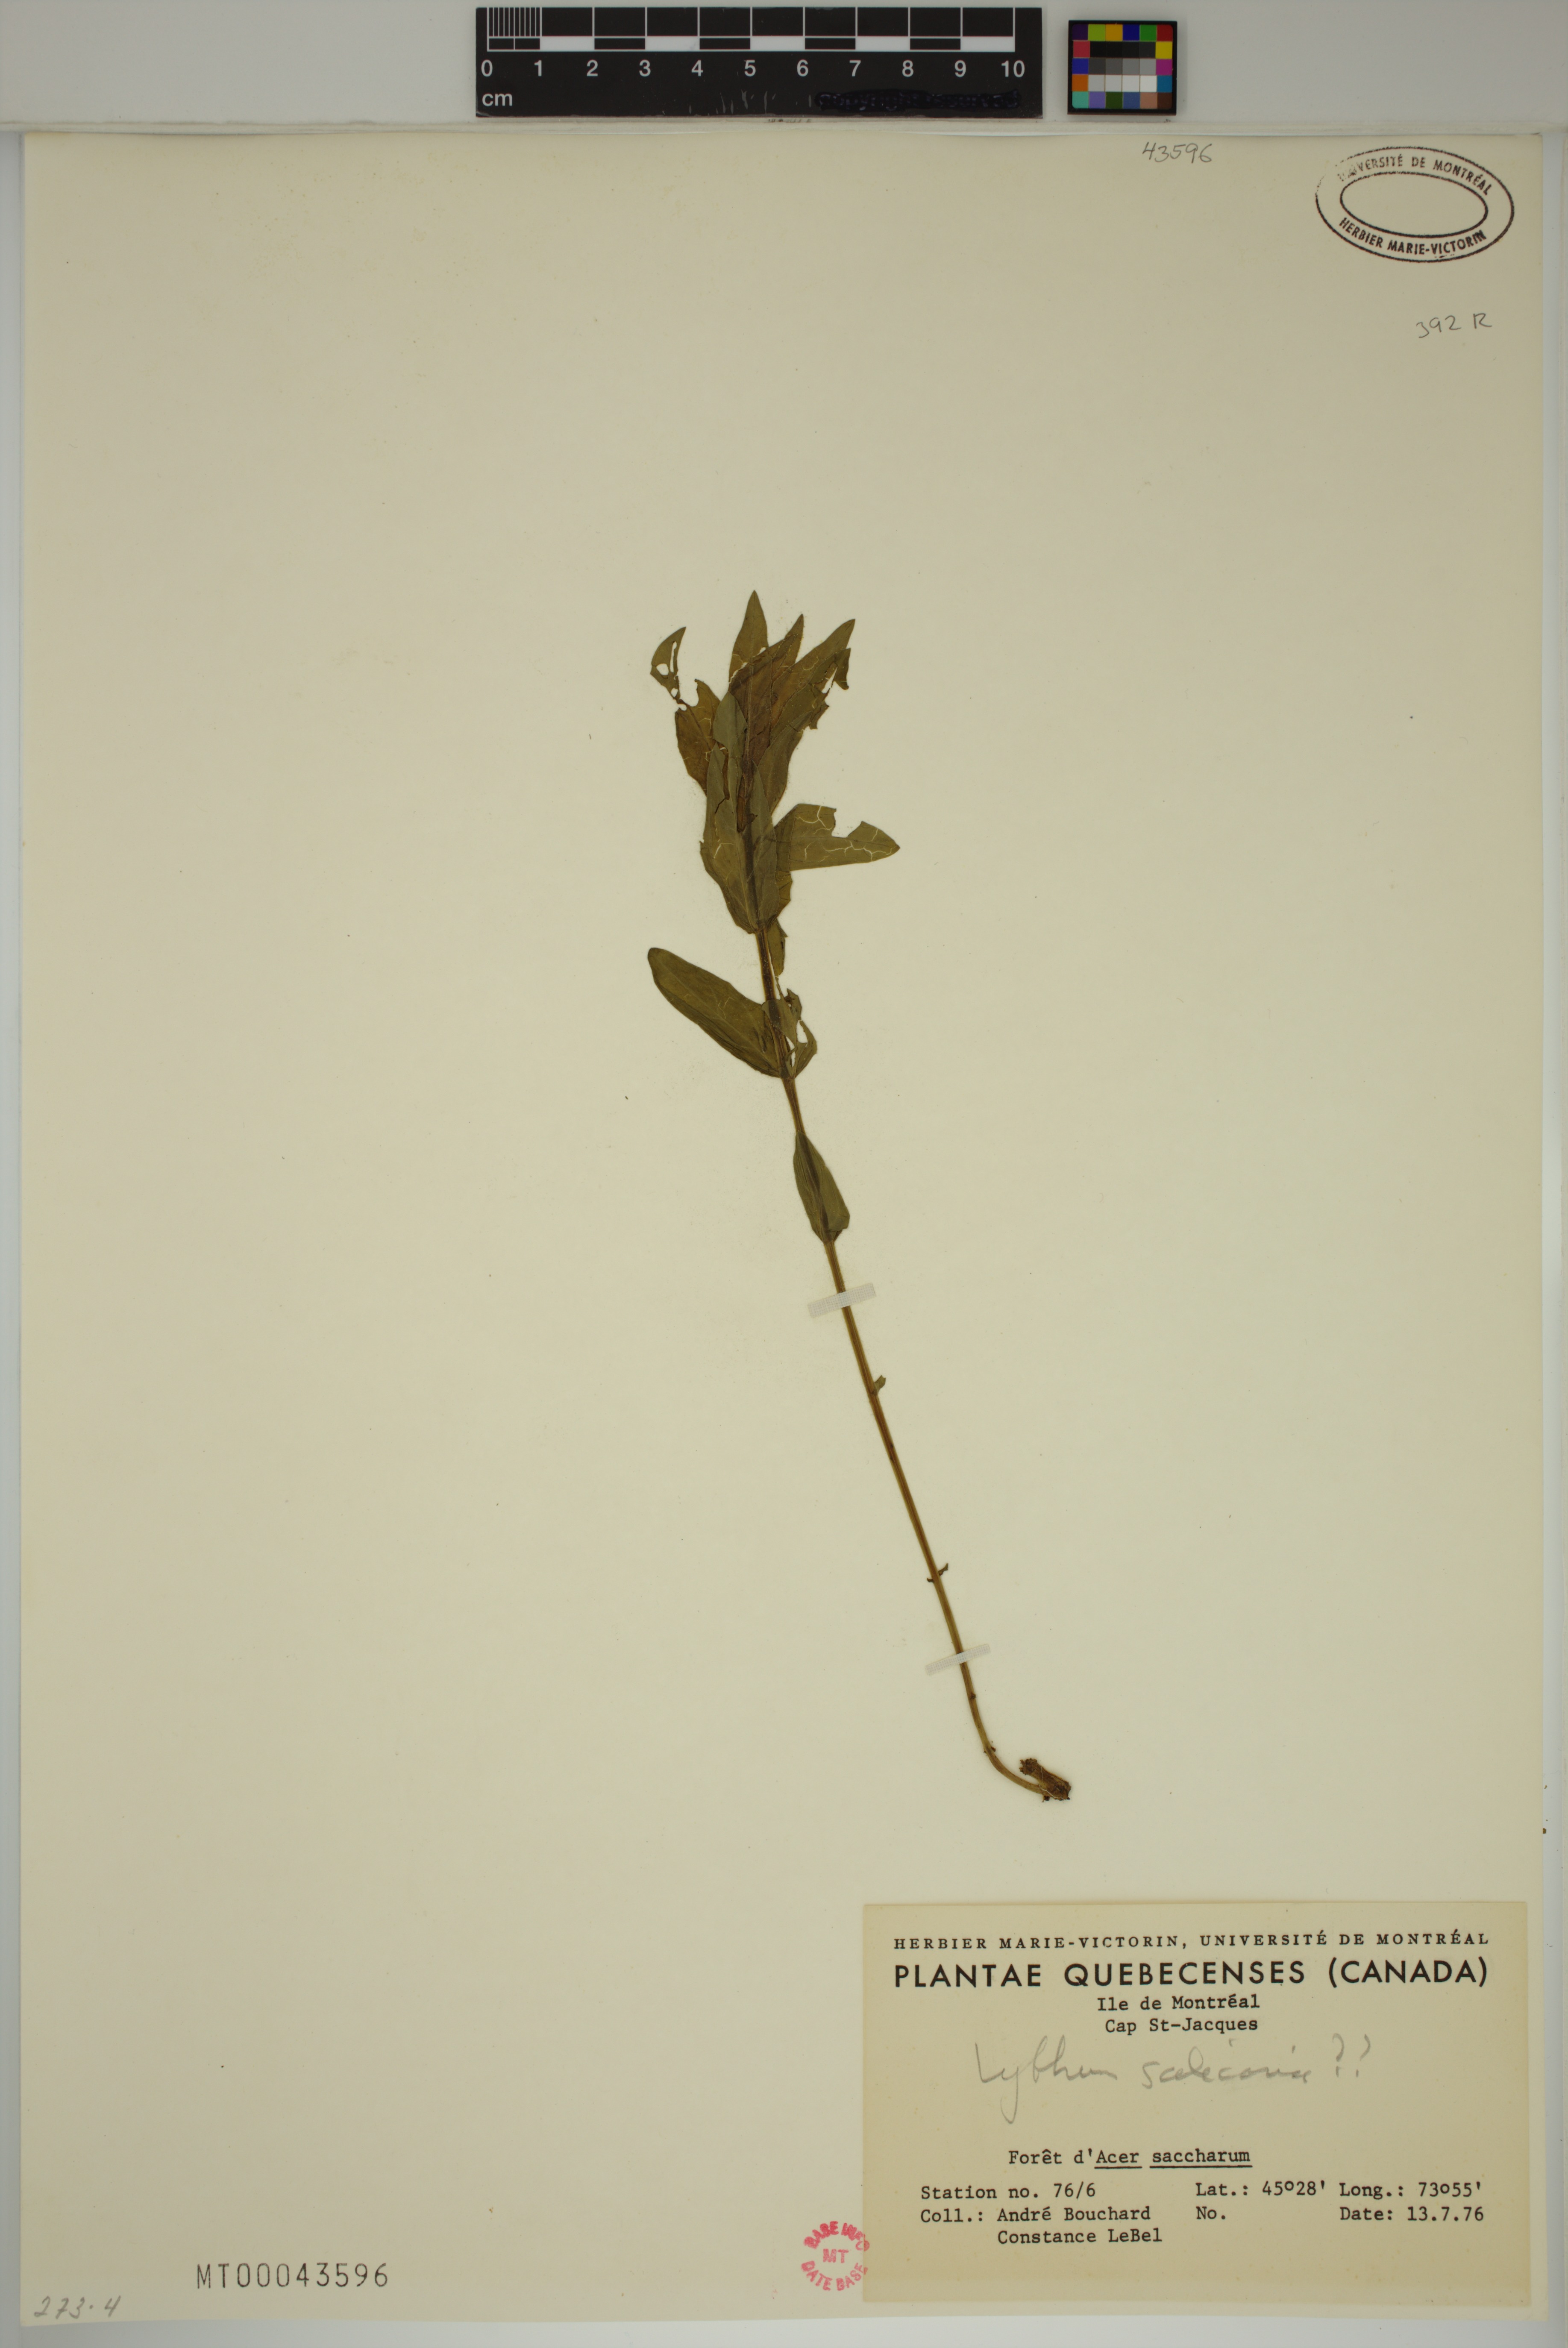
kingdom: Plantae
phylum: Tracheophyta
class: Magnoliopsida
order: Myrtales
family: Lythraceae
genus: Lythrum
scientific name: Lythrum salicaria
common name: Purple loosestrife
